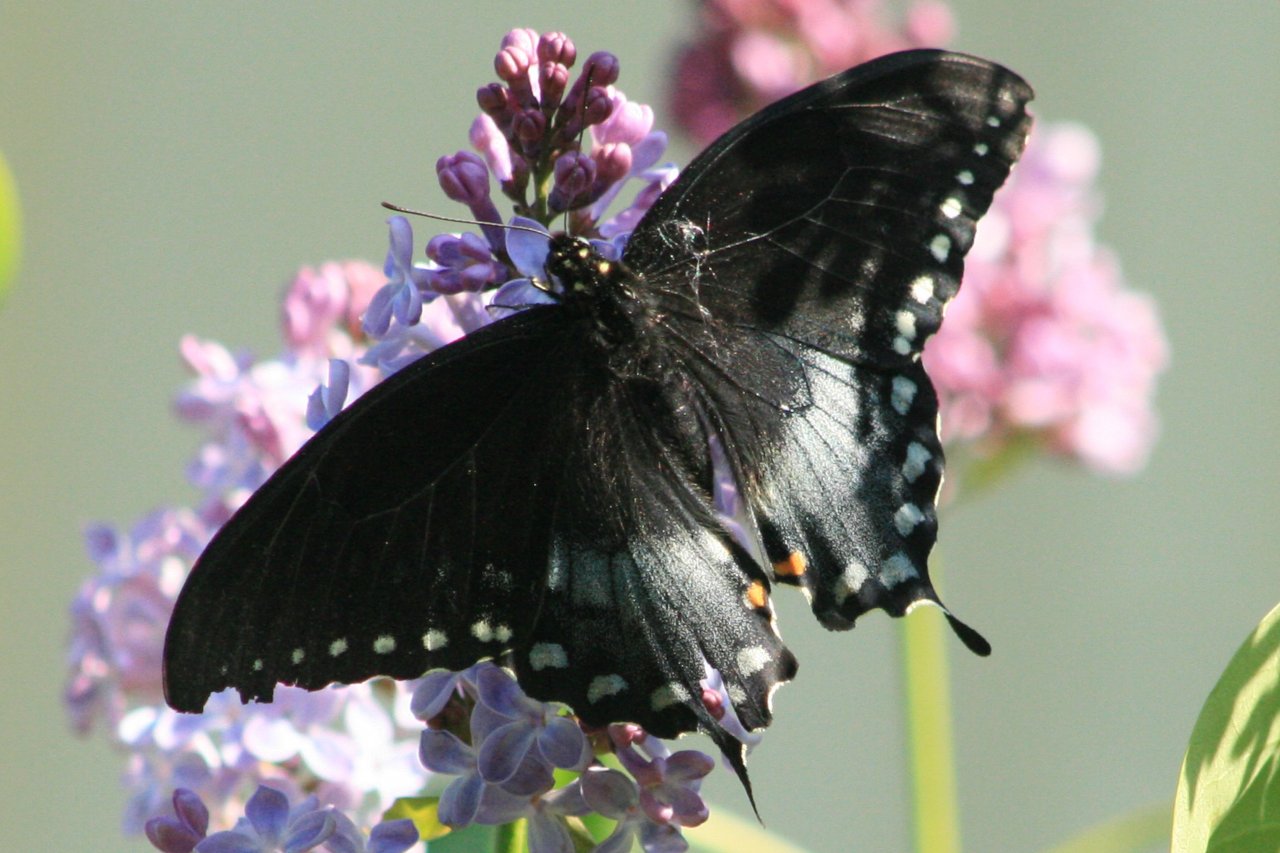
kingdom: Animalia
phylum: Arthropoda
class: Insecta
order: Lepidoptera
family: Papilionidae
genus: Pterourus
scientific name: Pterourus troilus
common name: Spicebush Swallowtail
